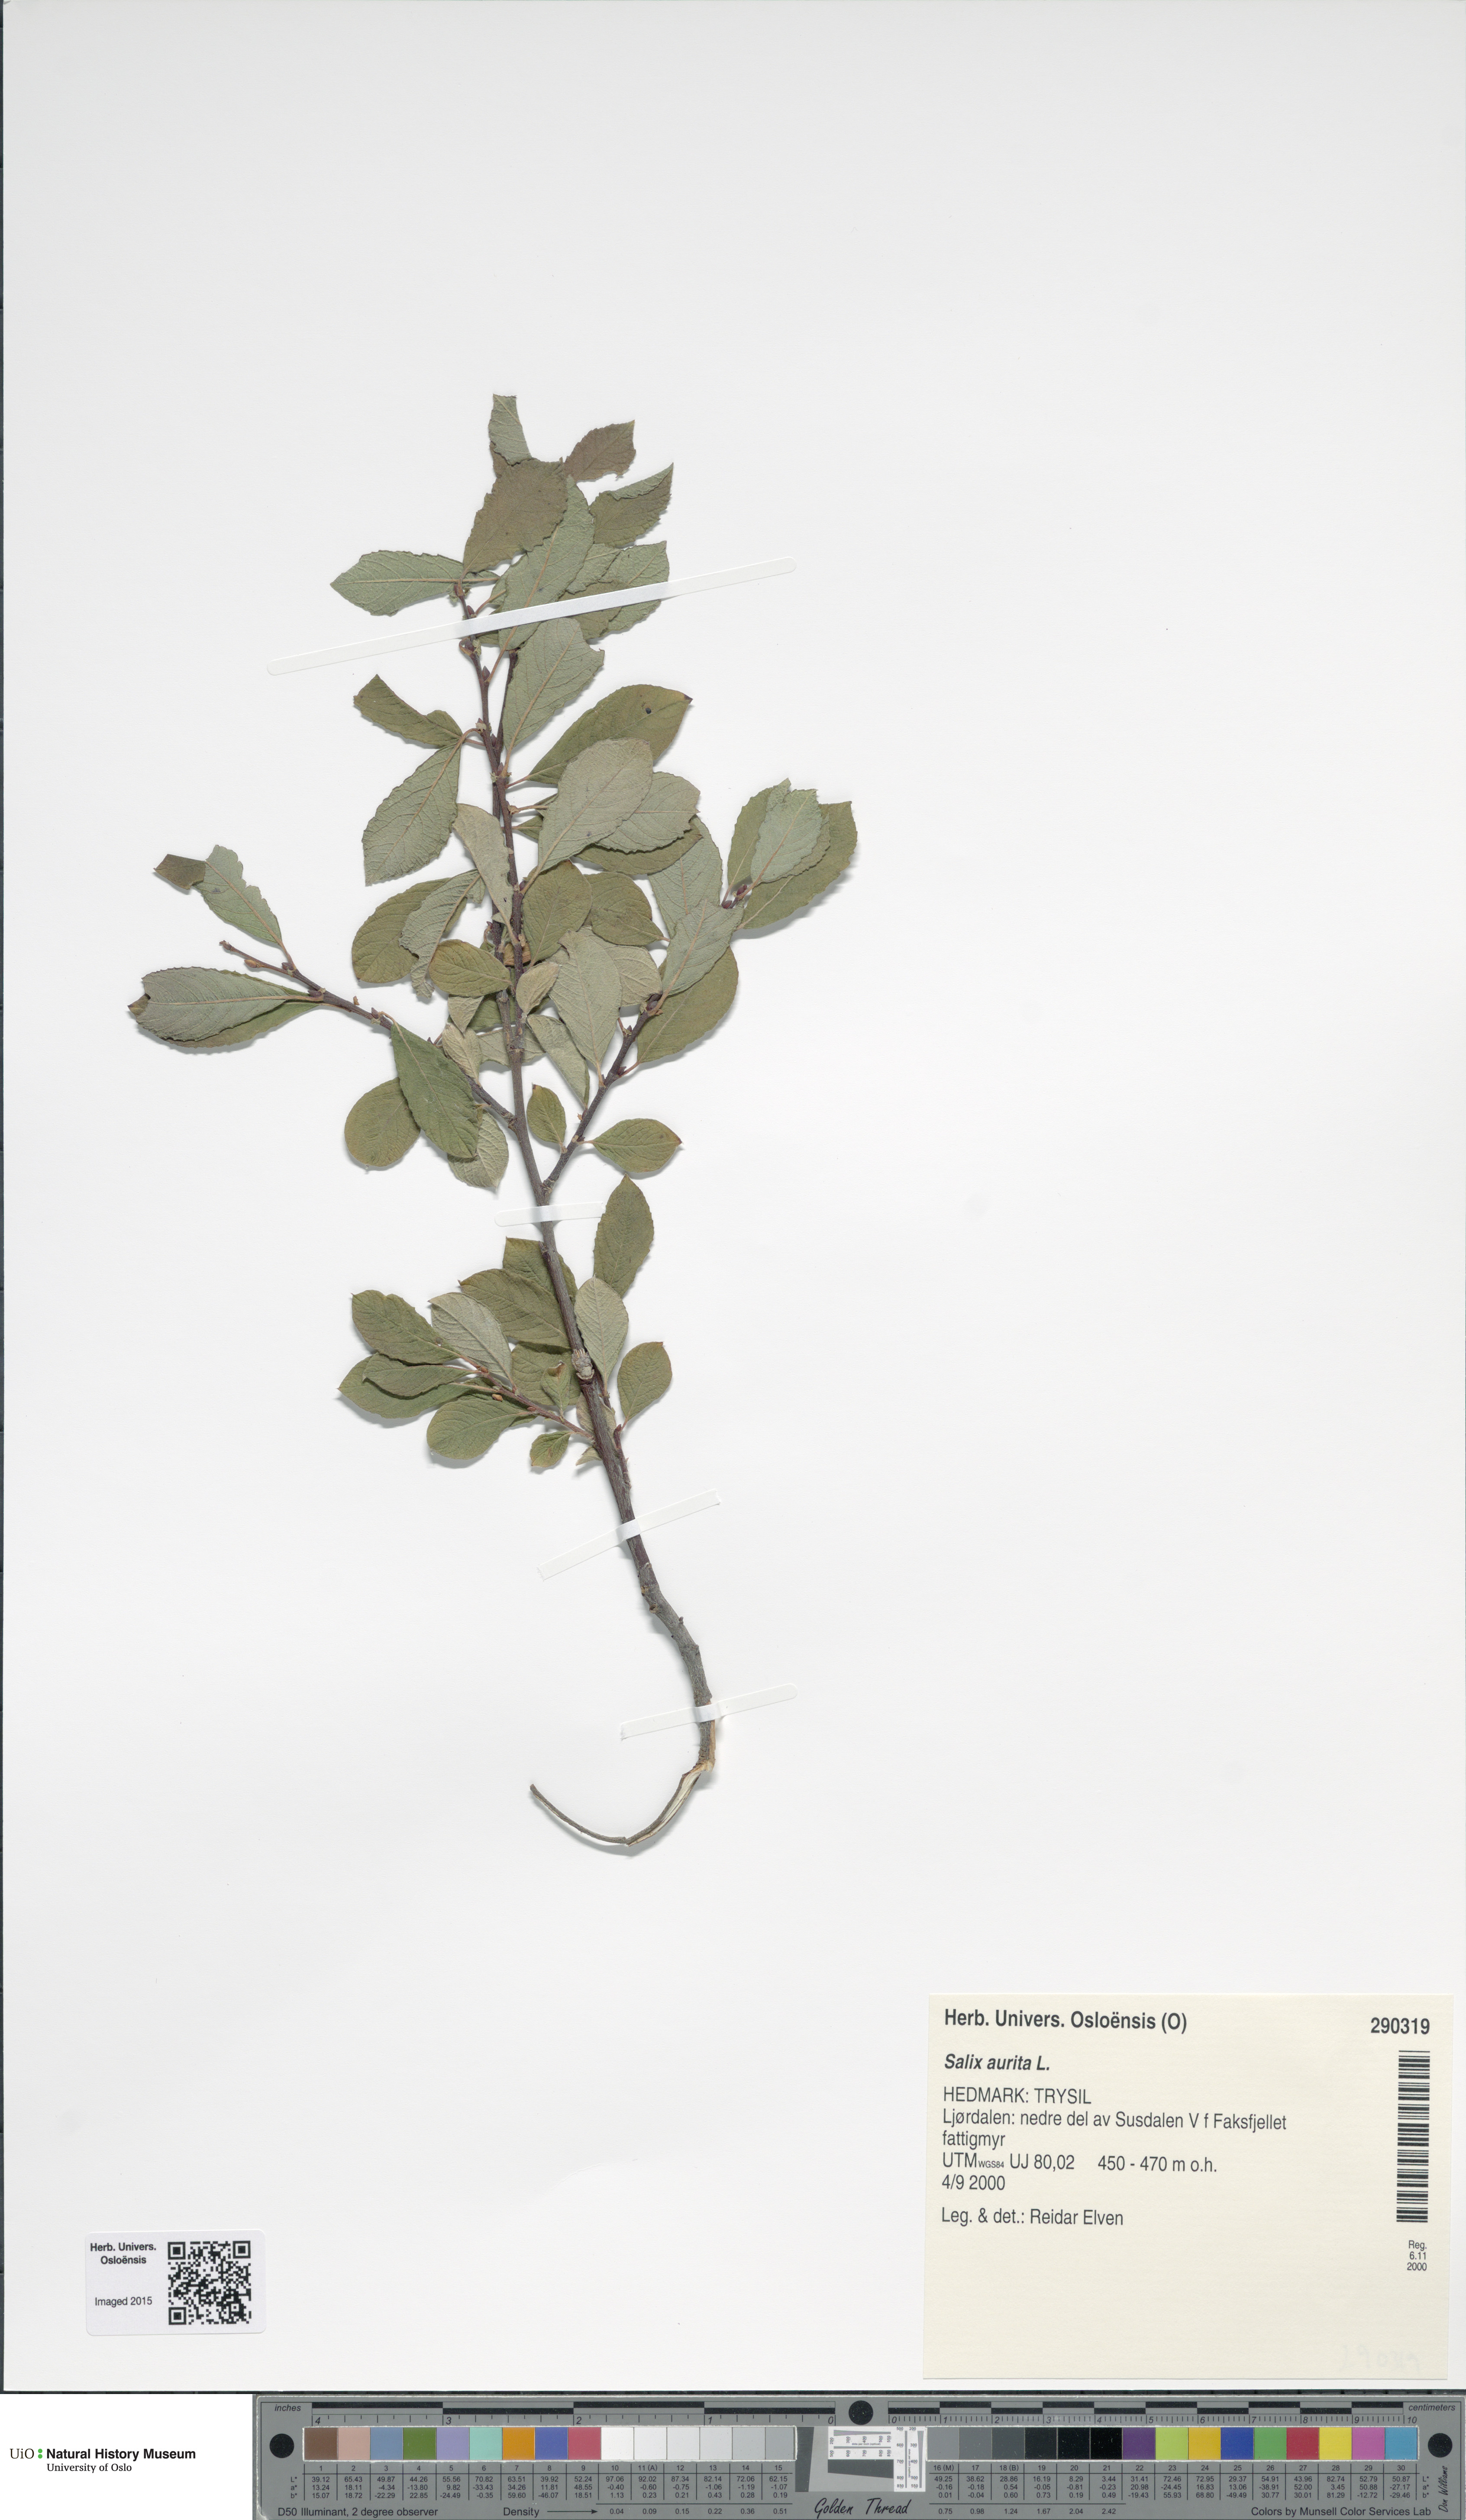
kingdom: Plantae
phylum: Tracheophyta
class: Magnoliopsida
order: Malpighiales
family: Salicaceae
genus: Salix
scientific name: Salix aurita
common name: Eared willow
